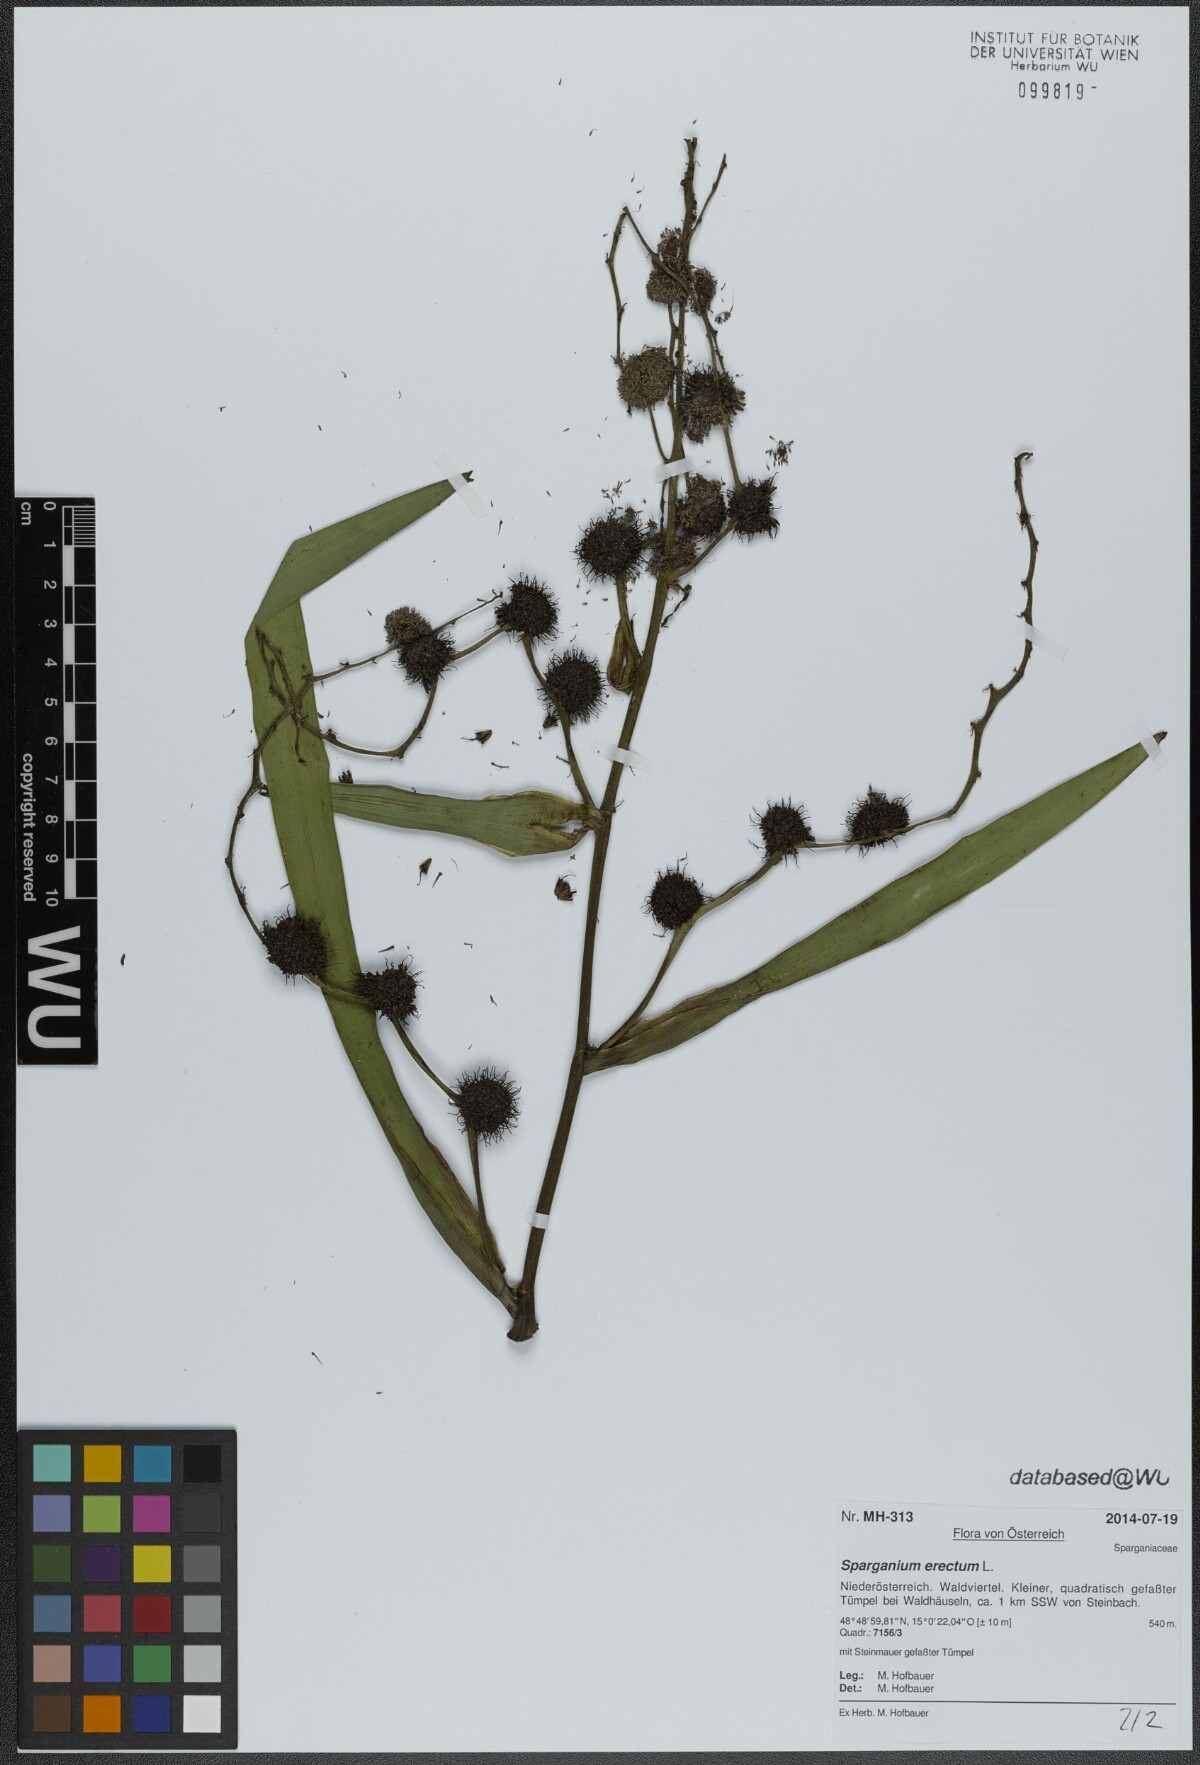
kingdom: Plantae
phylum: Tracheophyta
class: Liliopsida
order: Poales
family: Typhaceae
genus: Sparganium
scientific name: Sparganium erectum
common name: Branched bur-reed
